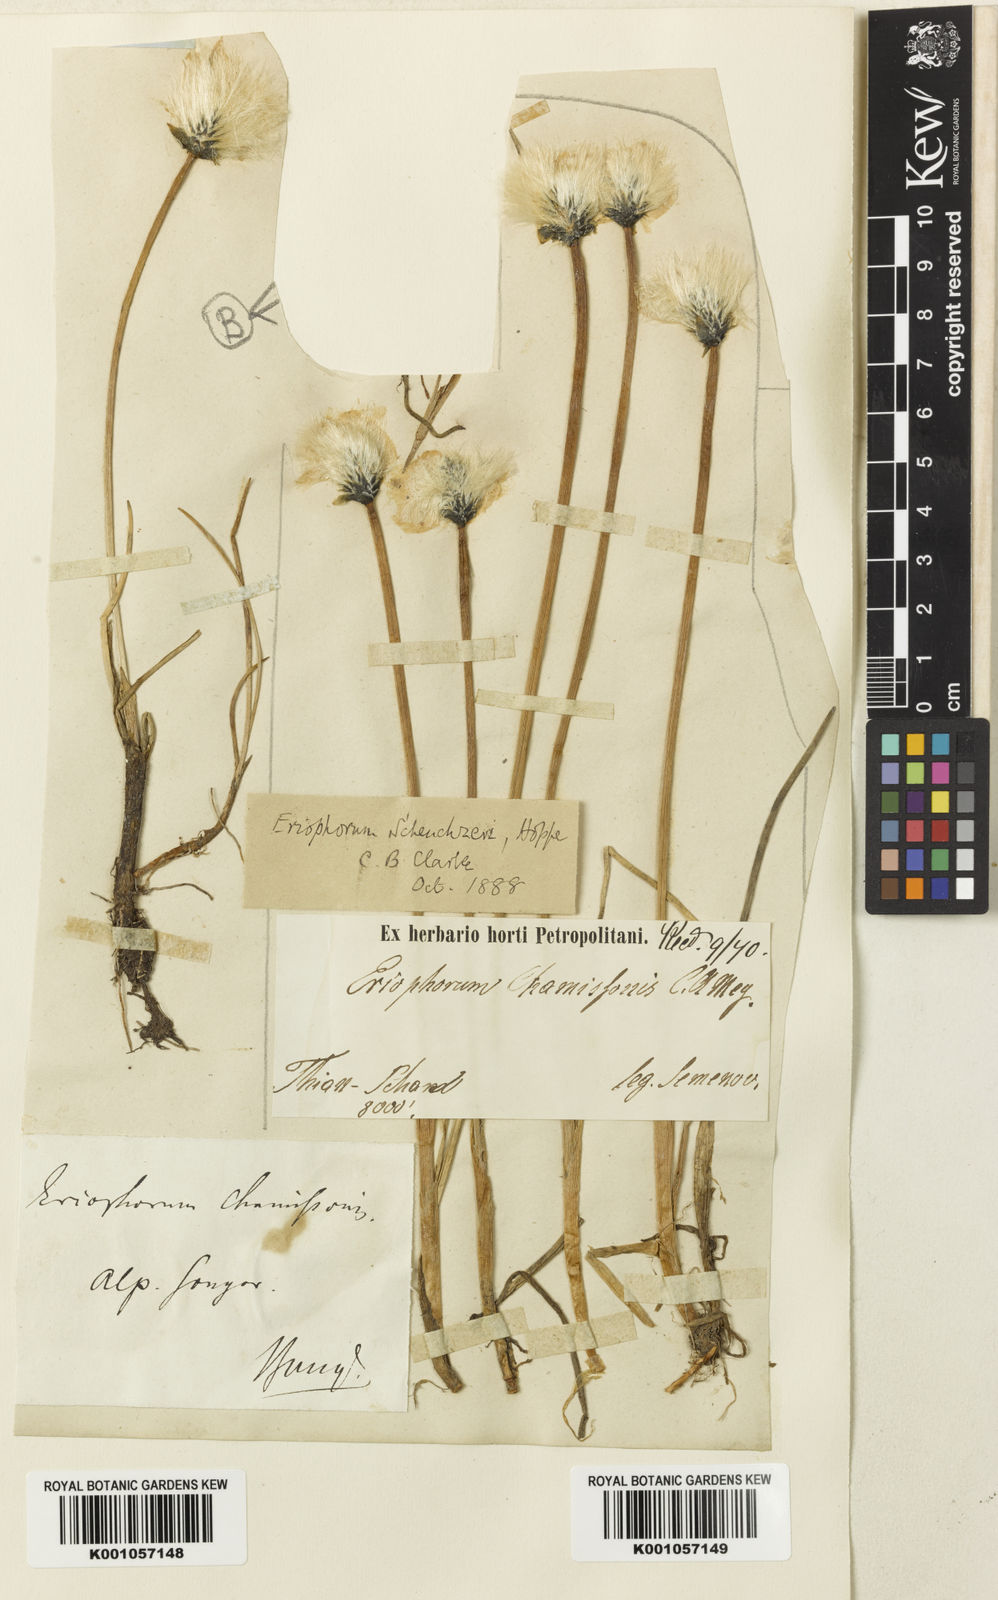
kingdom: Plantae
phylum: Tracheophyta
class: Liliopsida
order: Poales
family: Cyperaceae
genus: Eriophorum
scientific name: Eriophorum chamissonis
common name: Chamisso's cottongrass
